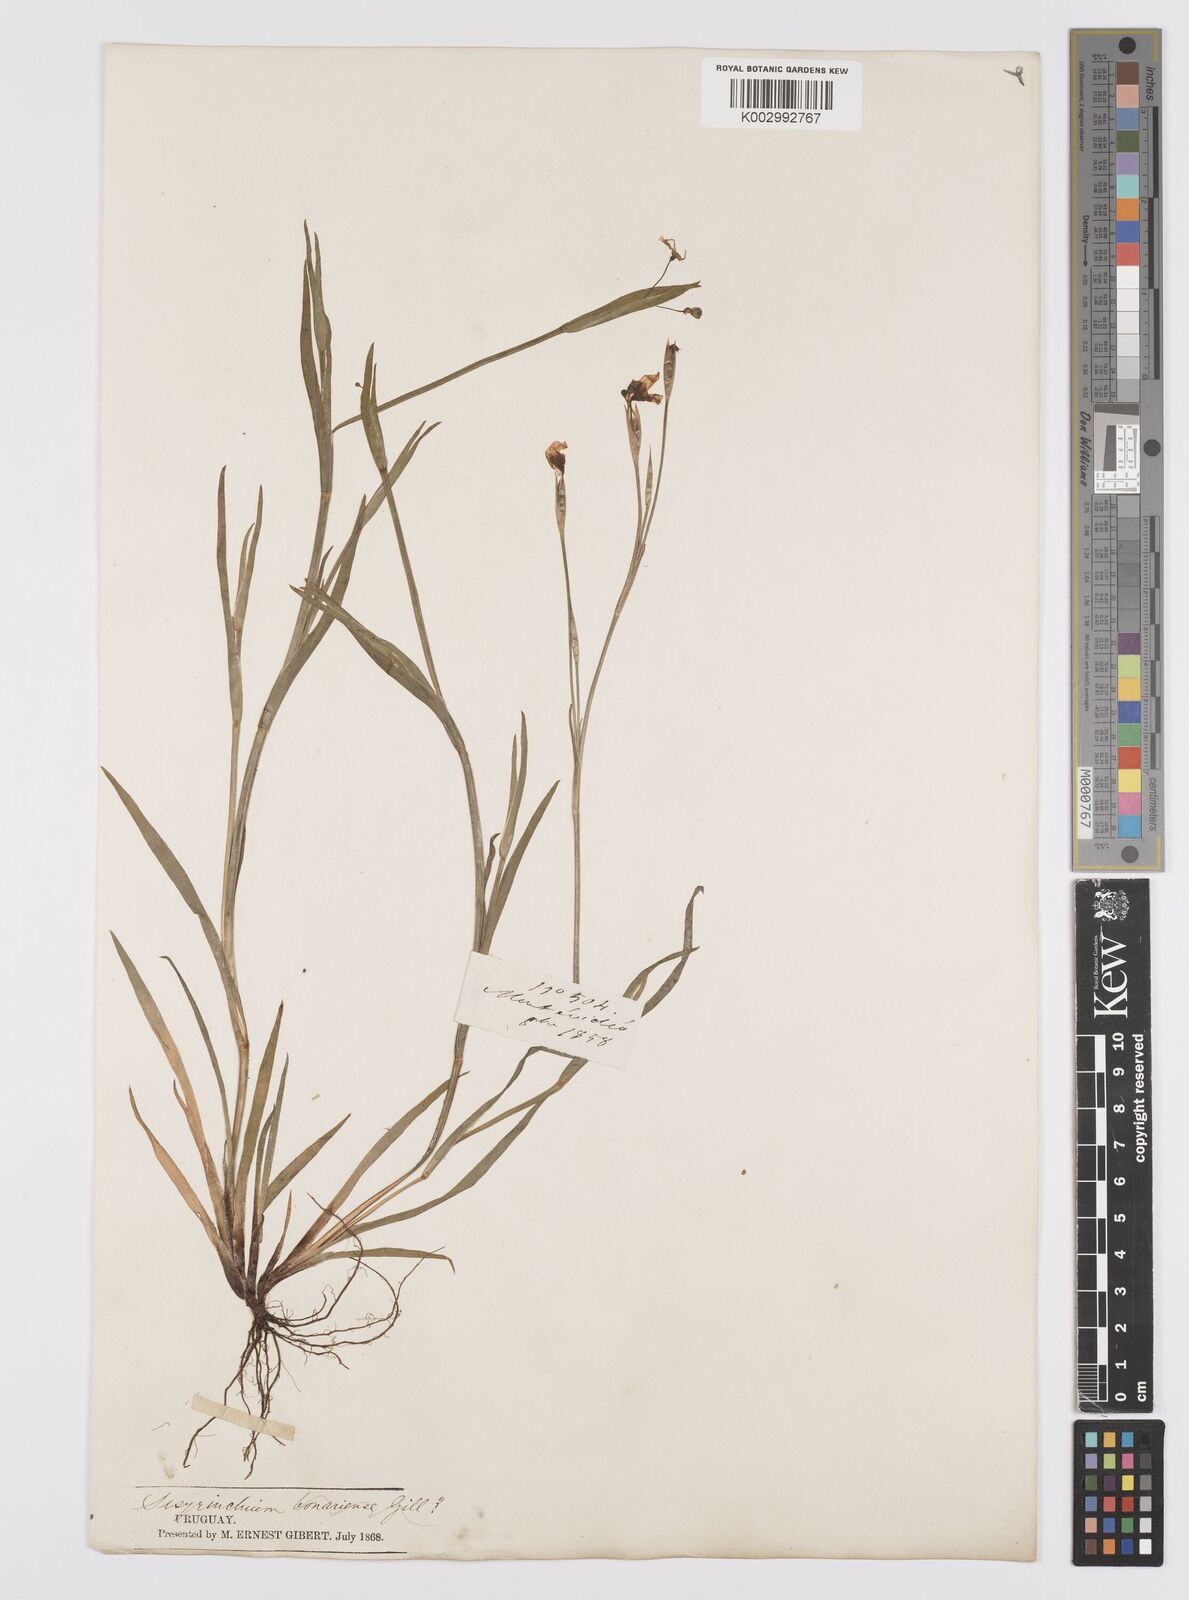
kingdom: Plantae
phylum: Tracheophyta
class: Liliopsida
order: Asparagales
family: Iridaceae
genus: Sisyrinchium
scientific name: Sisyrinchium chilense
